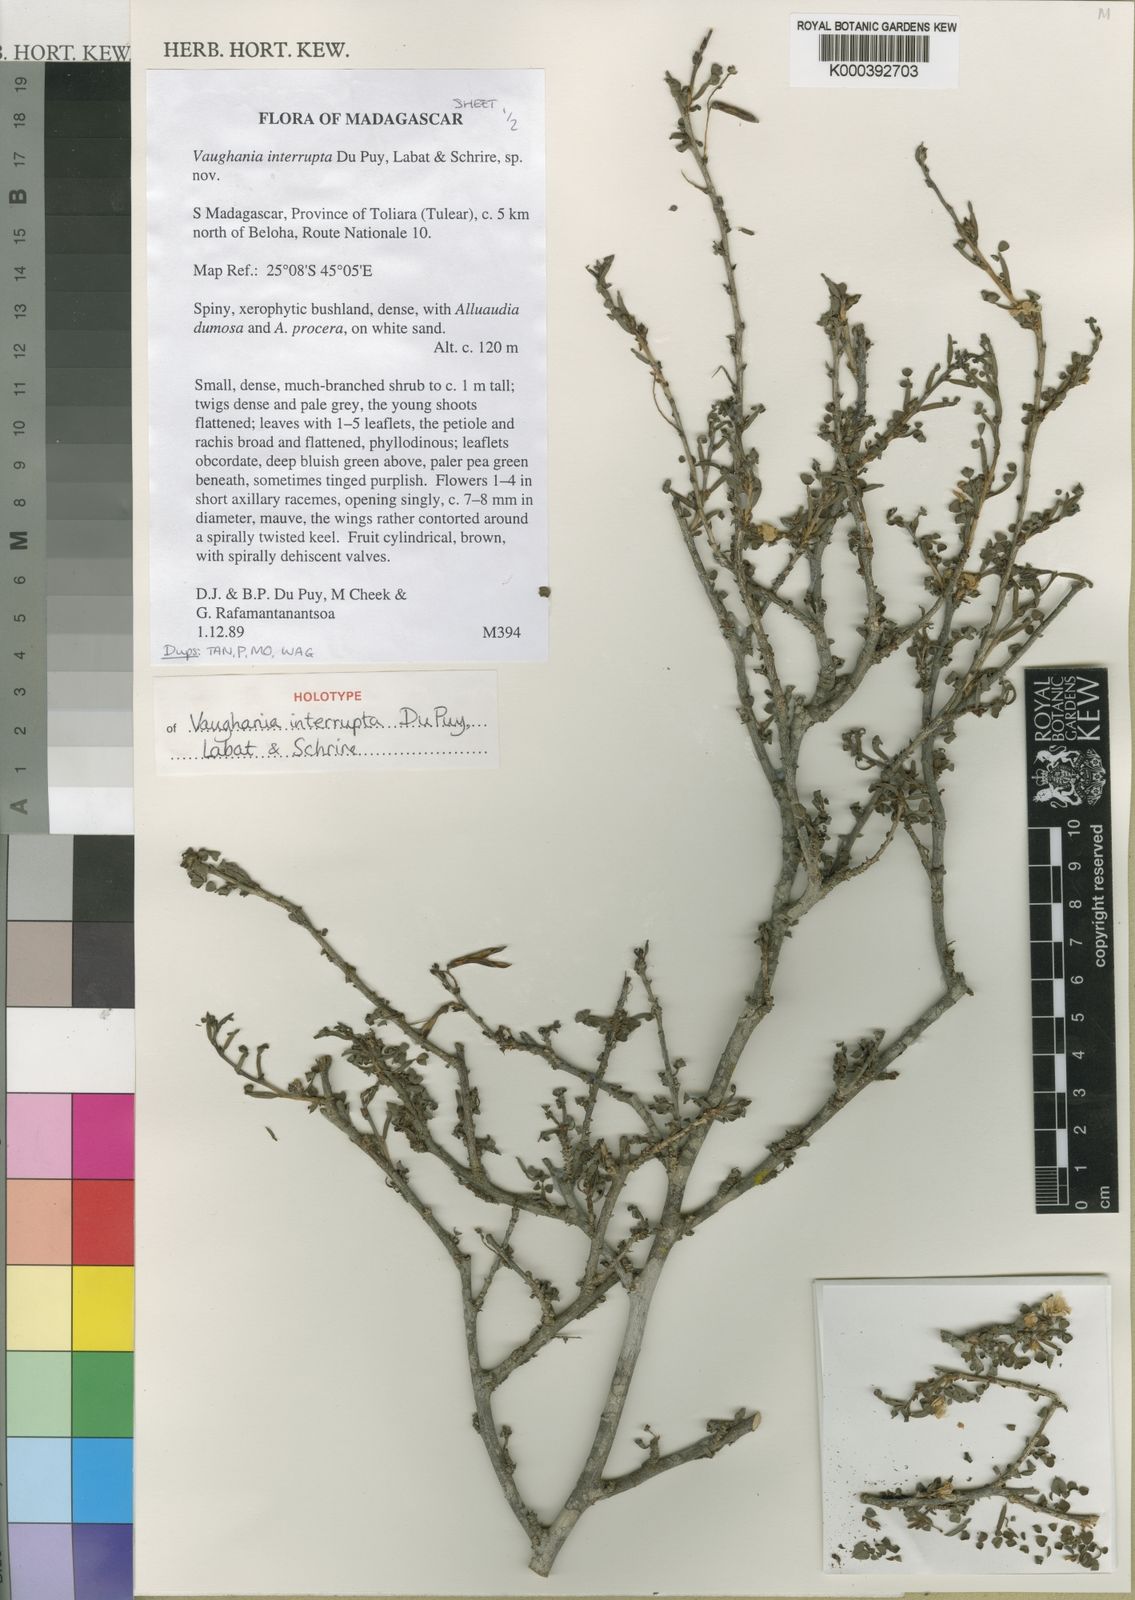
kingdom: Plantae
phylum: Tracheophyta
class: Magnoliopsida
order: Fabales
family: Fabaceae
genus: Indigofera
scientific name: Indigofera interrupta
